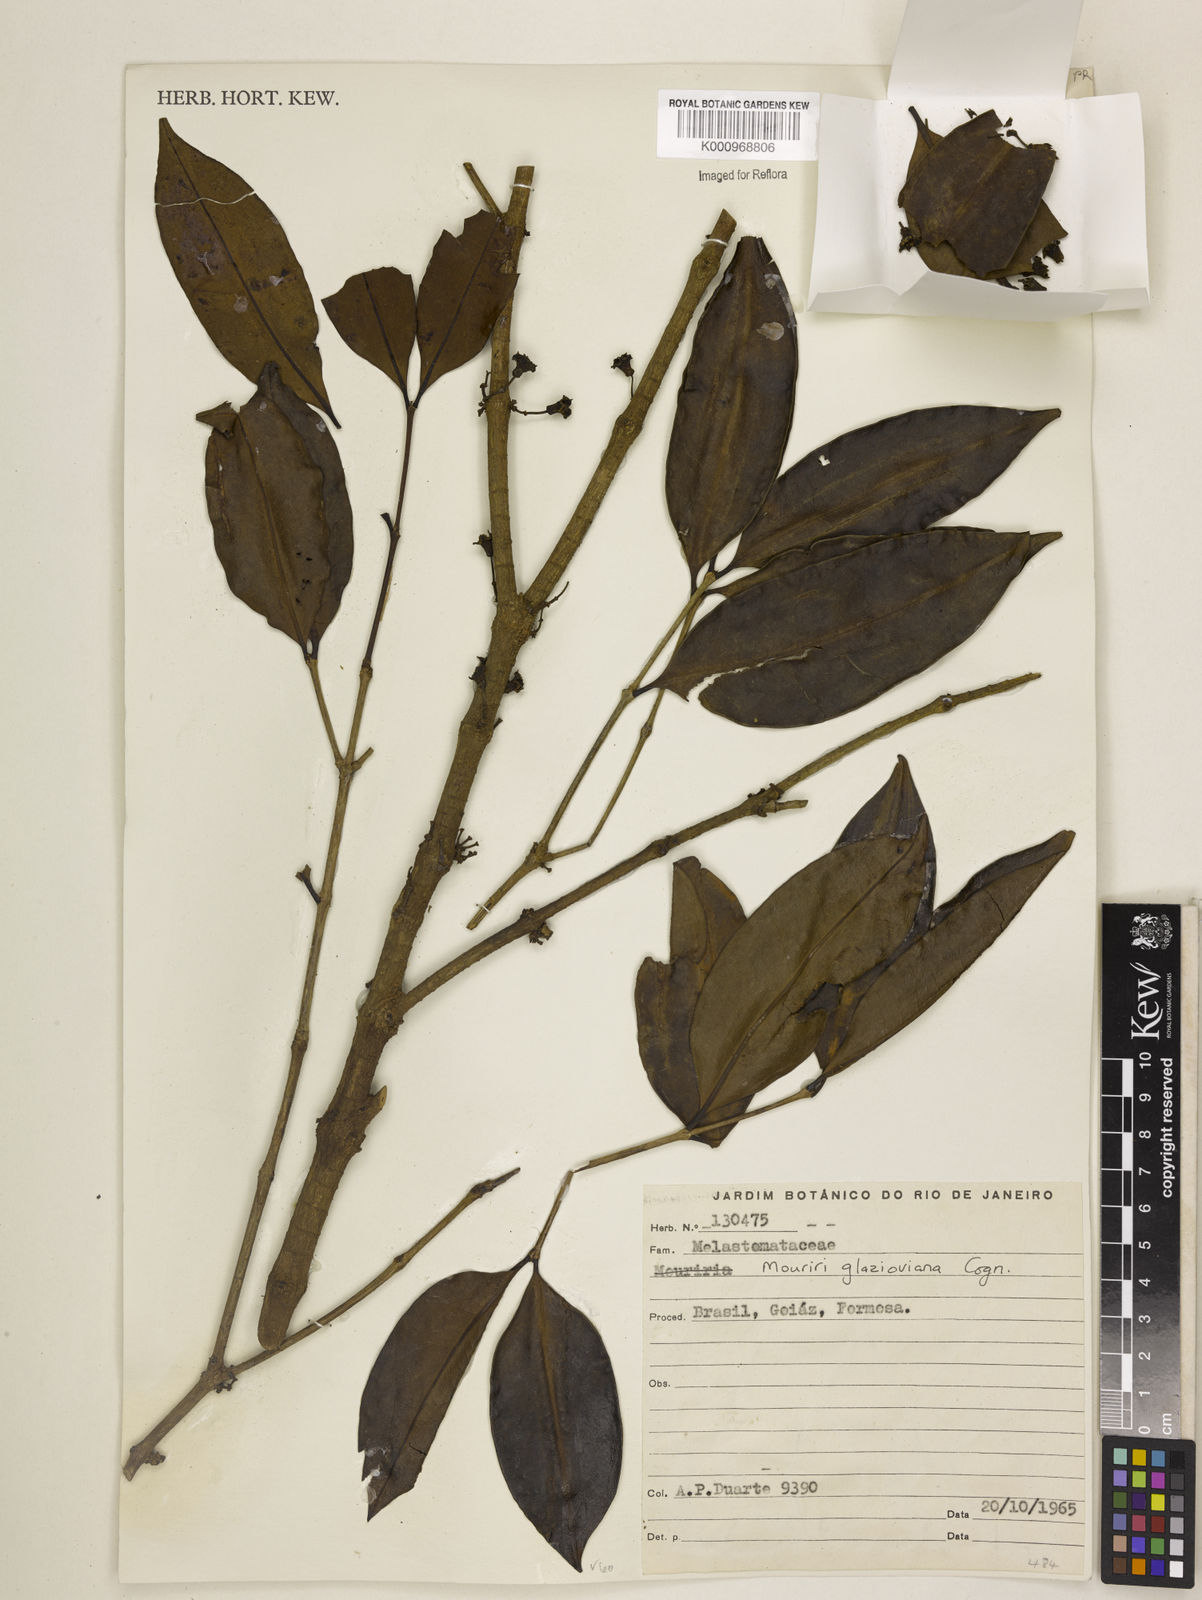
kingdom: Plantae
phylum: Tracheophyta
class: Magnoliopsida
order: Myrtales
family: Melastomataceae
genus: Mouriri
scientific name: Mouriri glazioviana
